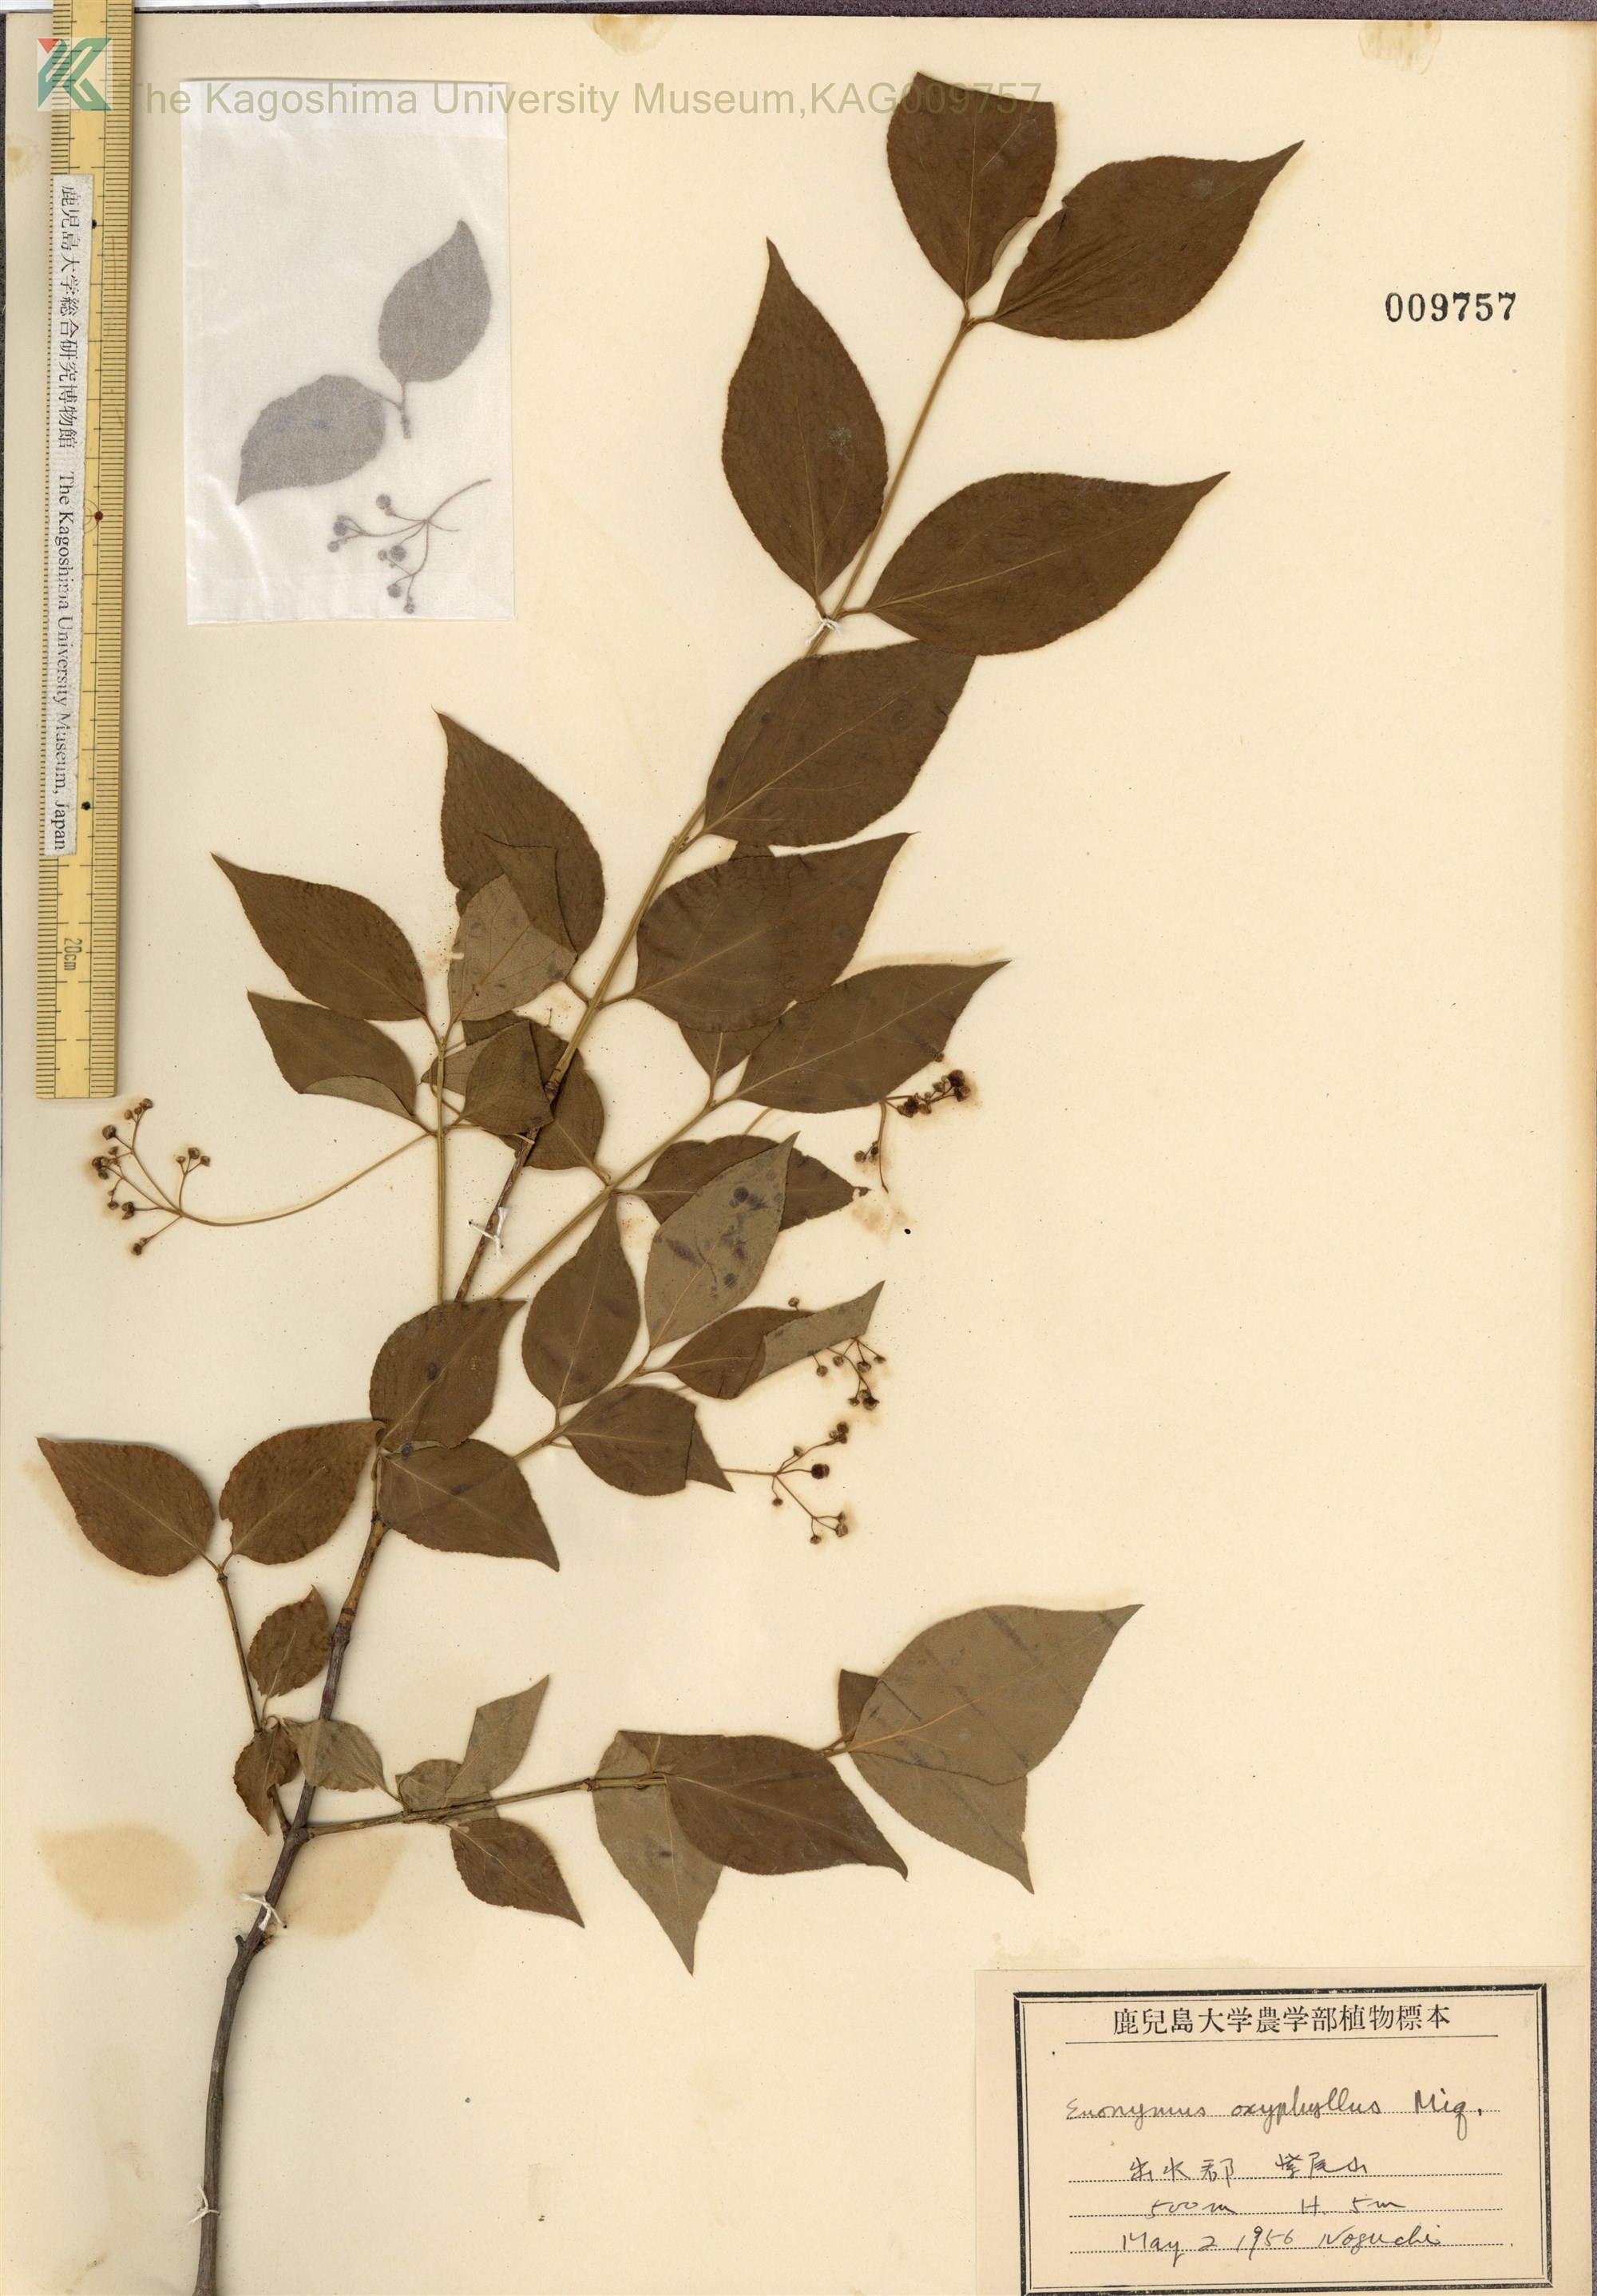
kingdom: Plantae
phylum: Tracheophyta
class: Magnoliopsida
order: Celastrales
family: Celastraceae
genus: Euonymus
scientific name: Euonymus oxyphyllus
